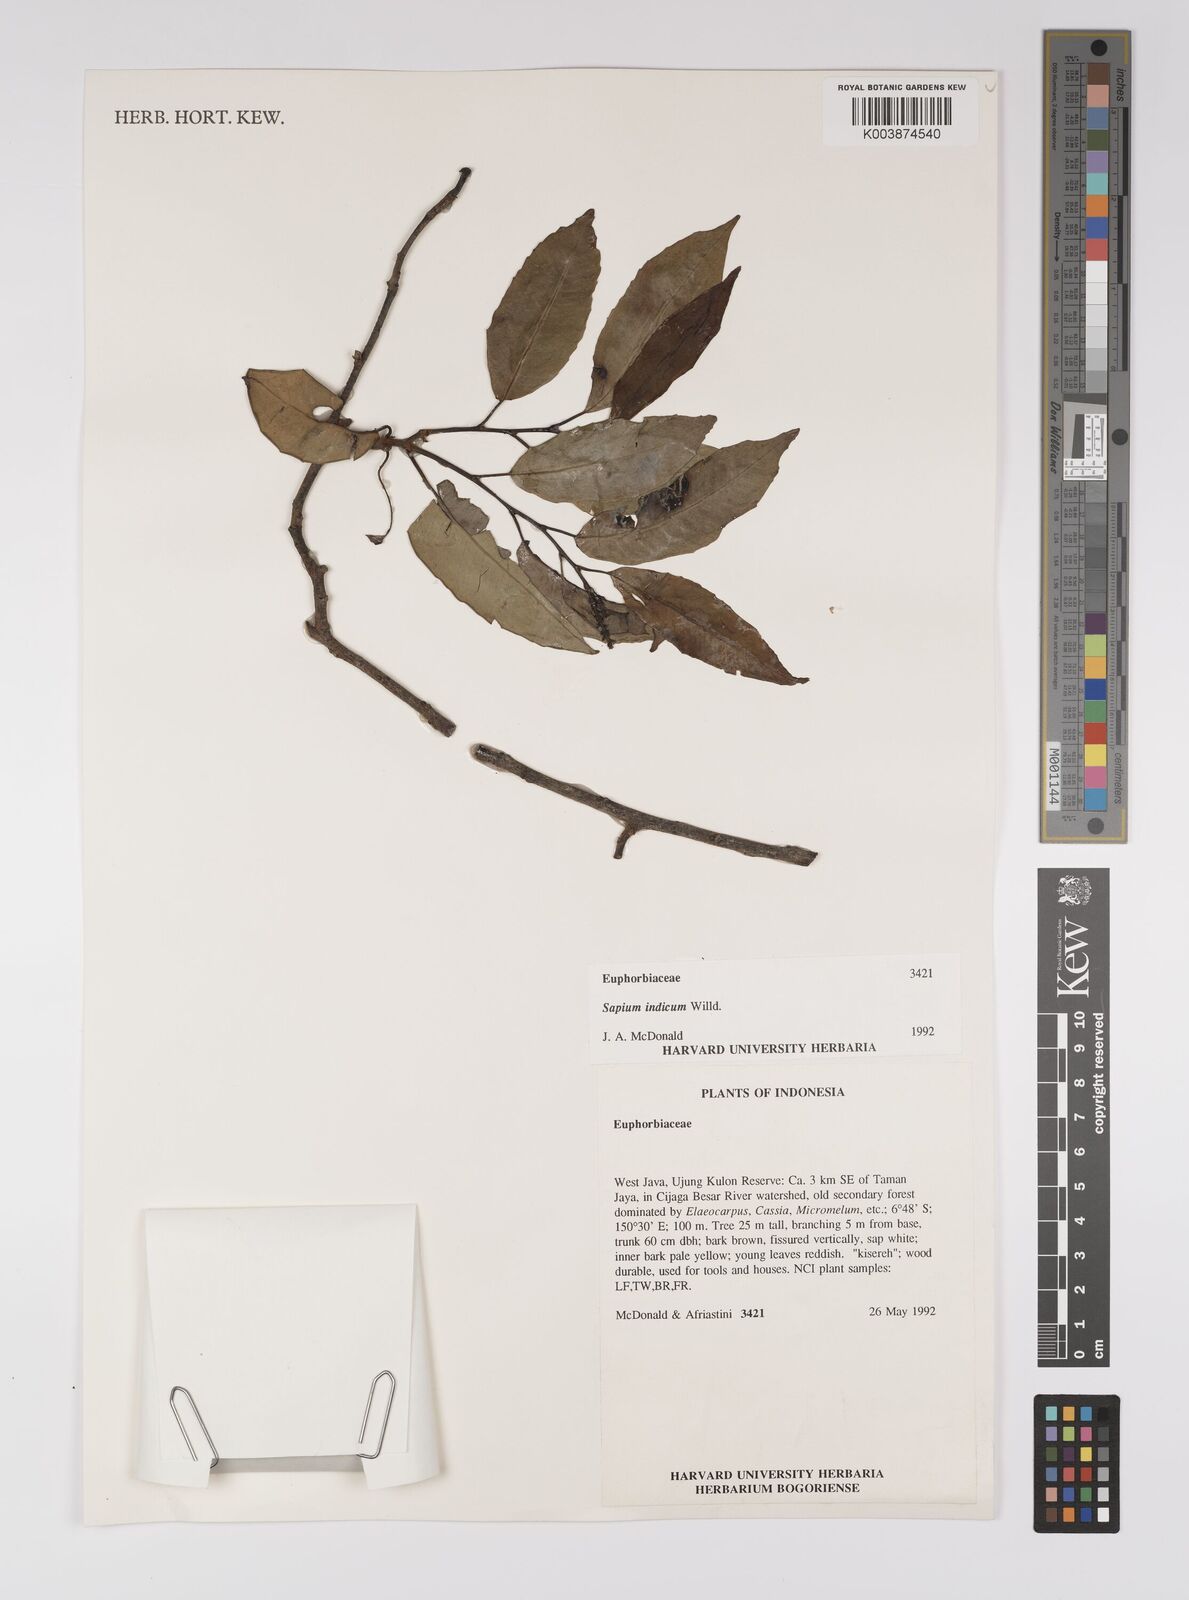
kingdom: Plantae
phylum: Tracheophyta
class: Magnoliopsida
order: Malpighiales
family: Euphorbiaceae
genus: Shirakiopsis
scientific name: Shirakiopsis indica
